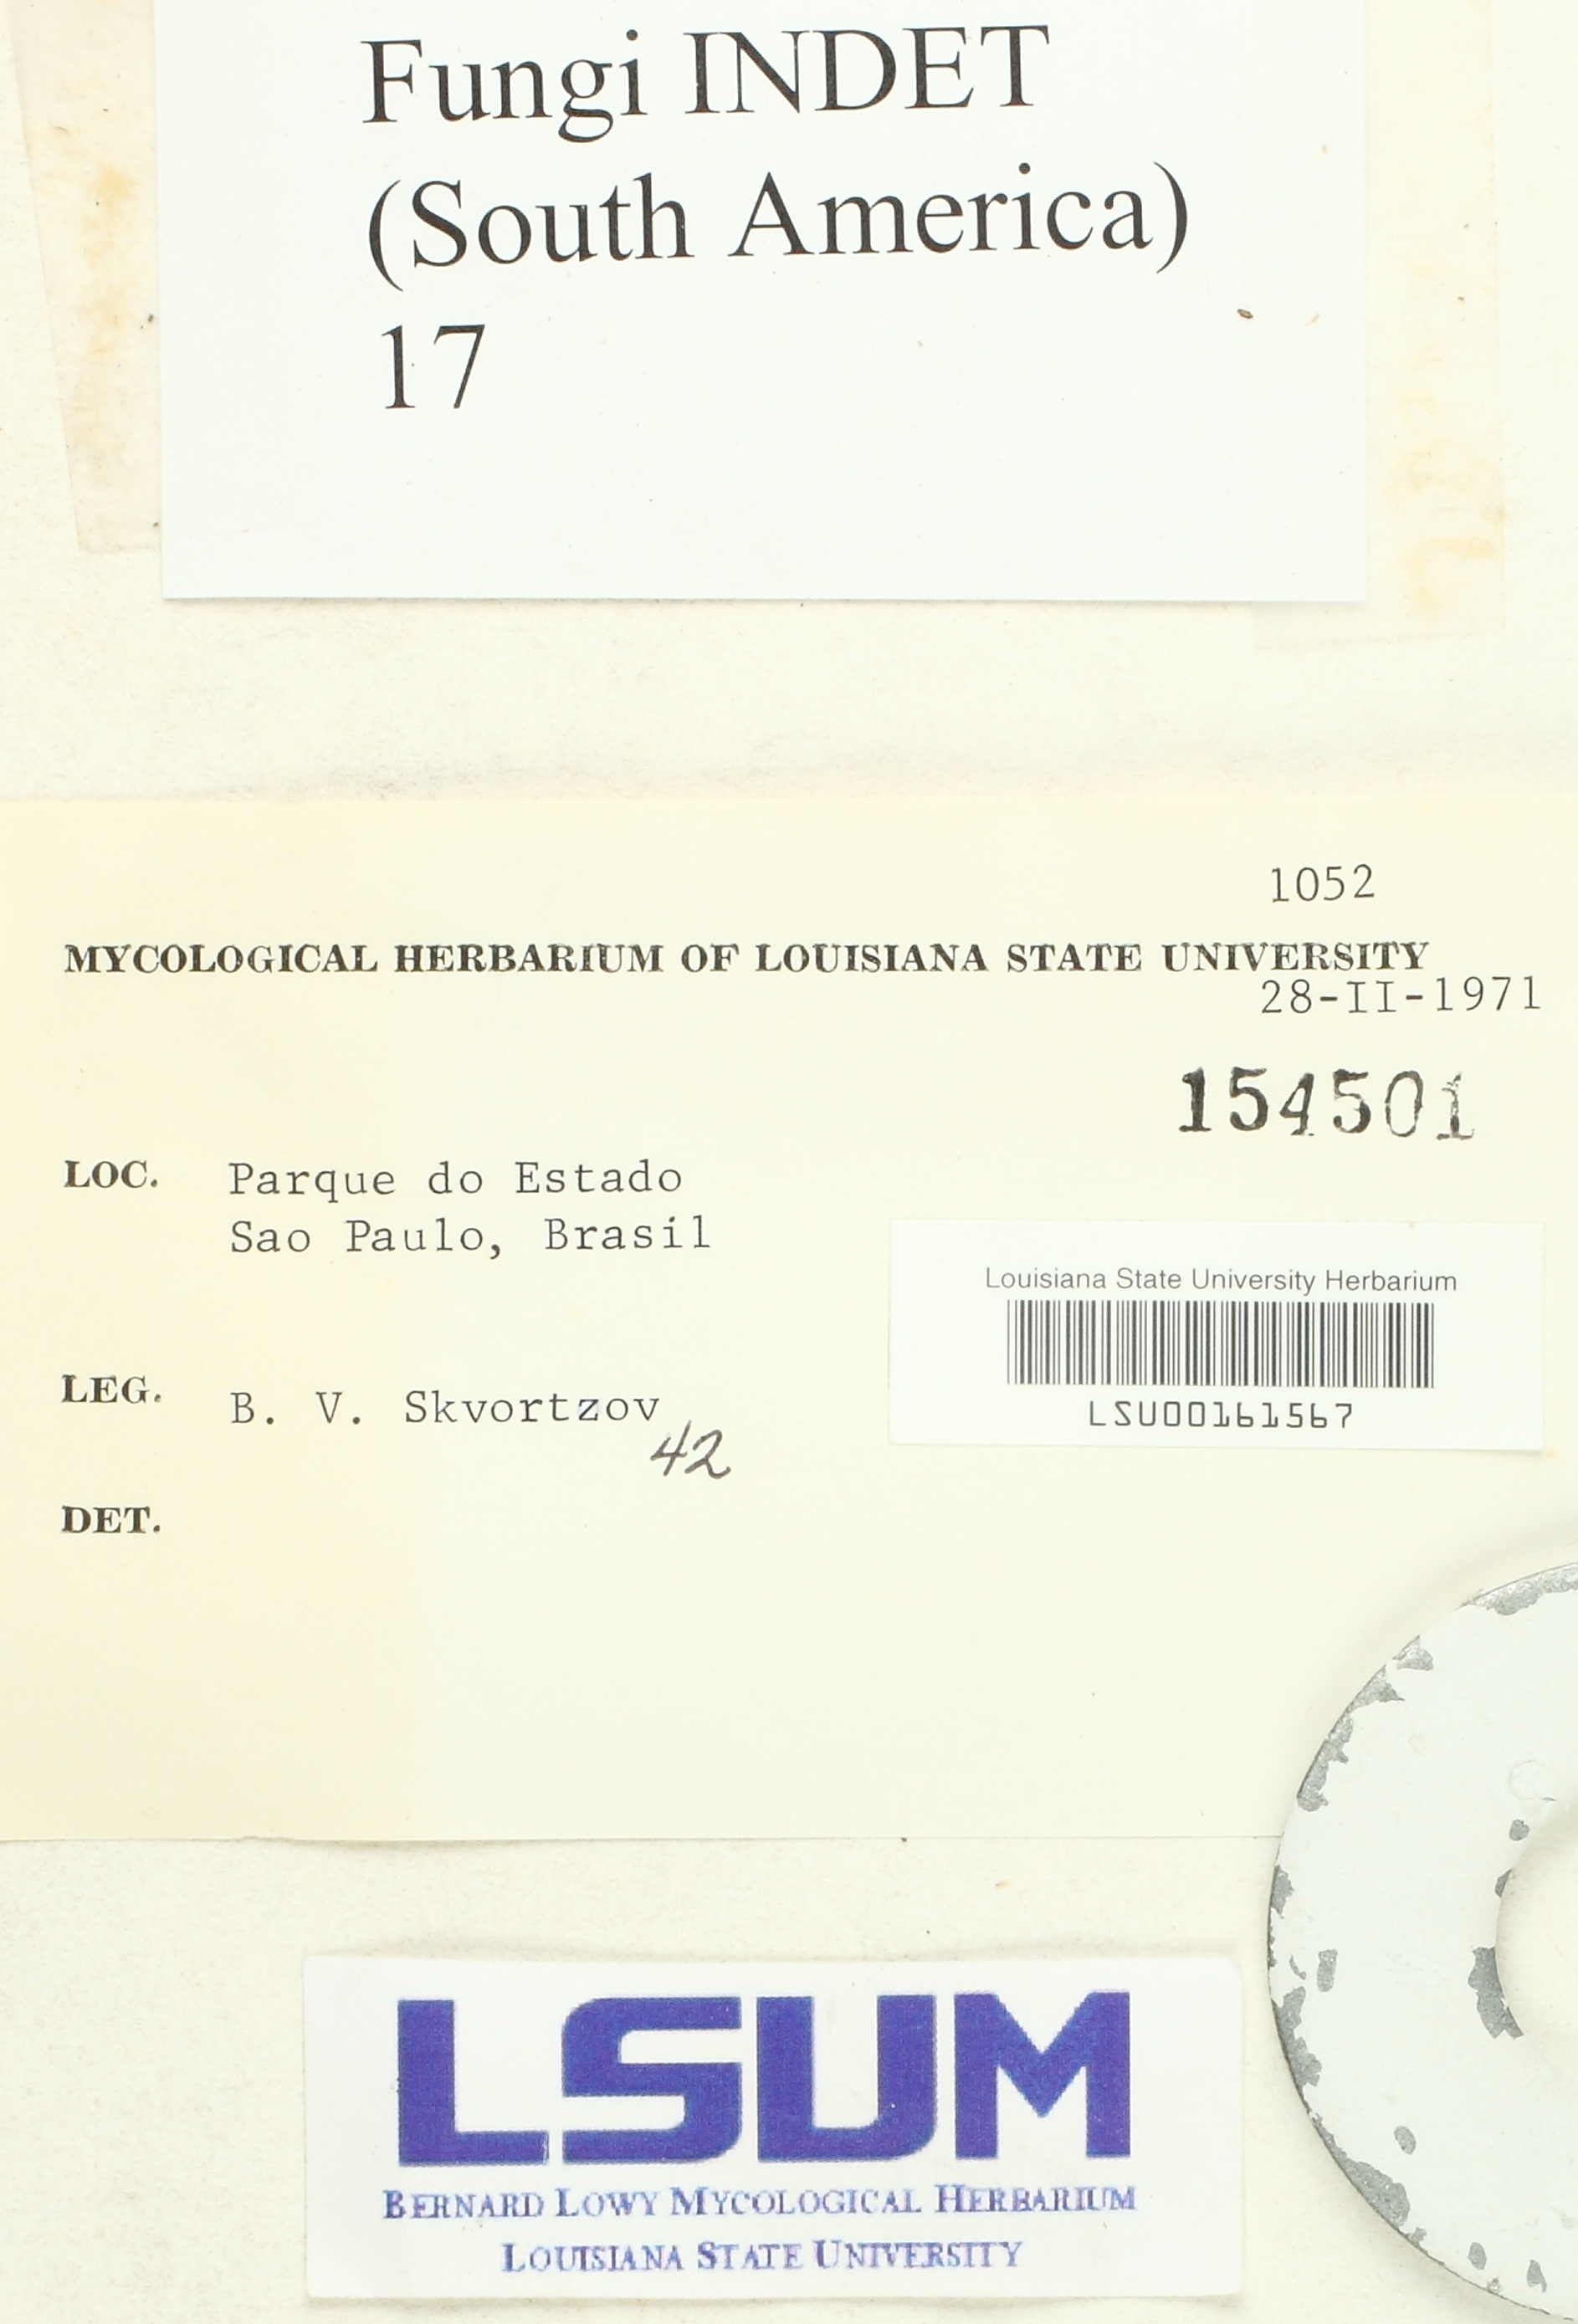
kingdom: Fungi
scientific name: Fungi
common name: Fungi
